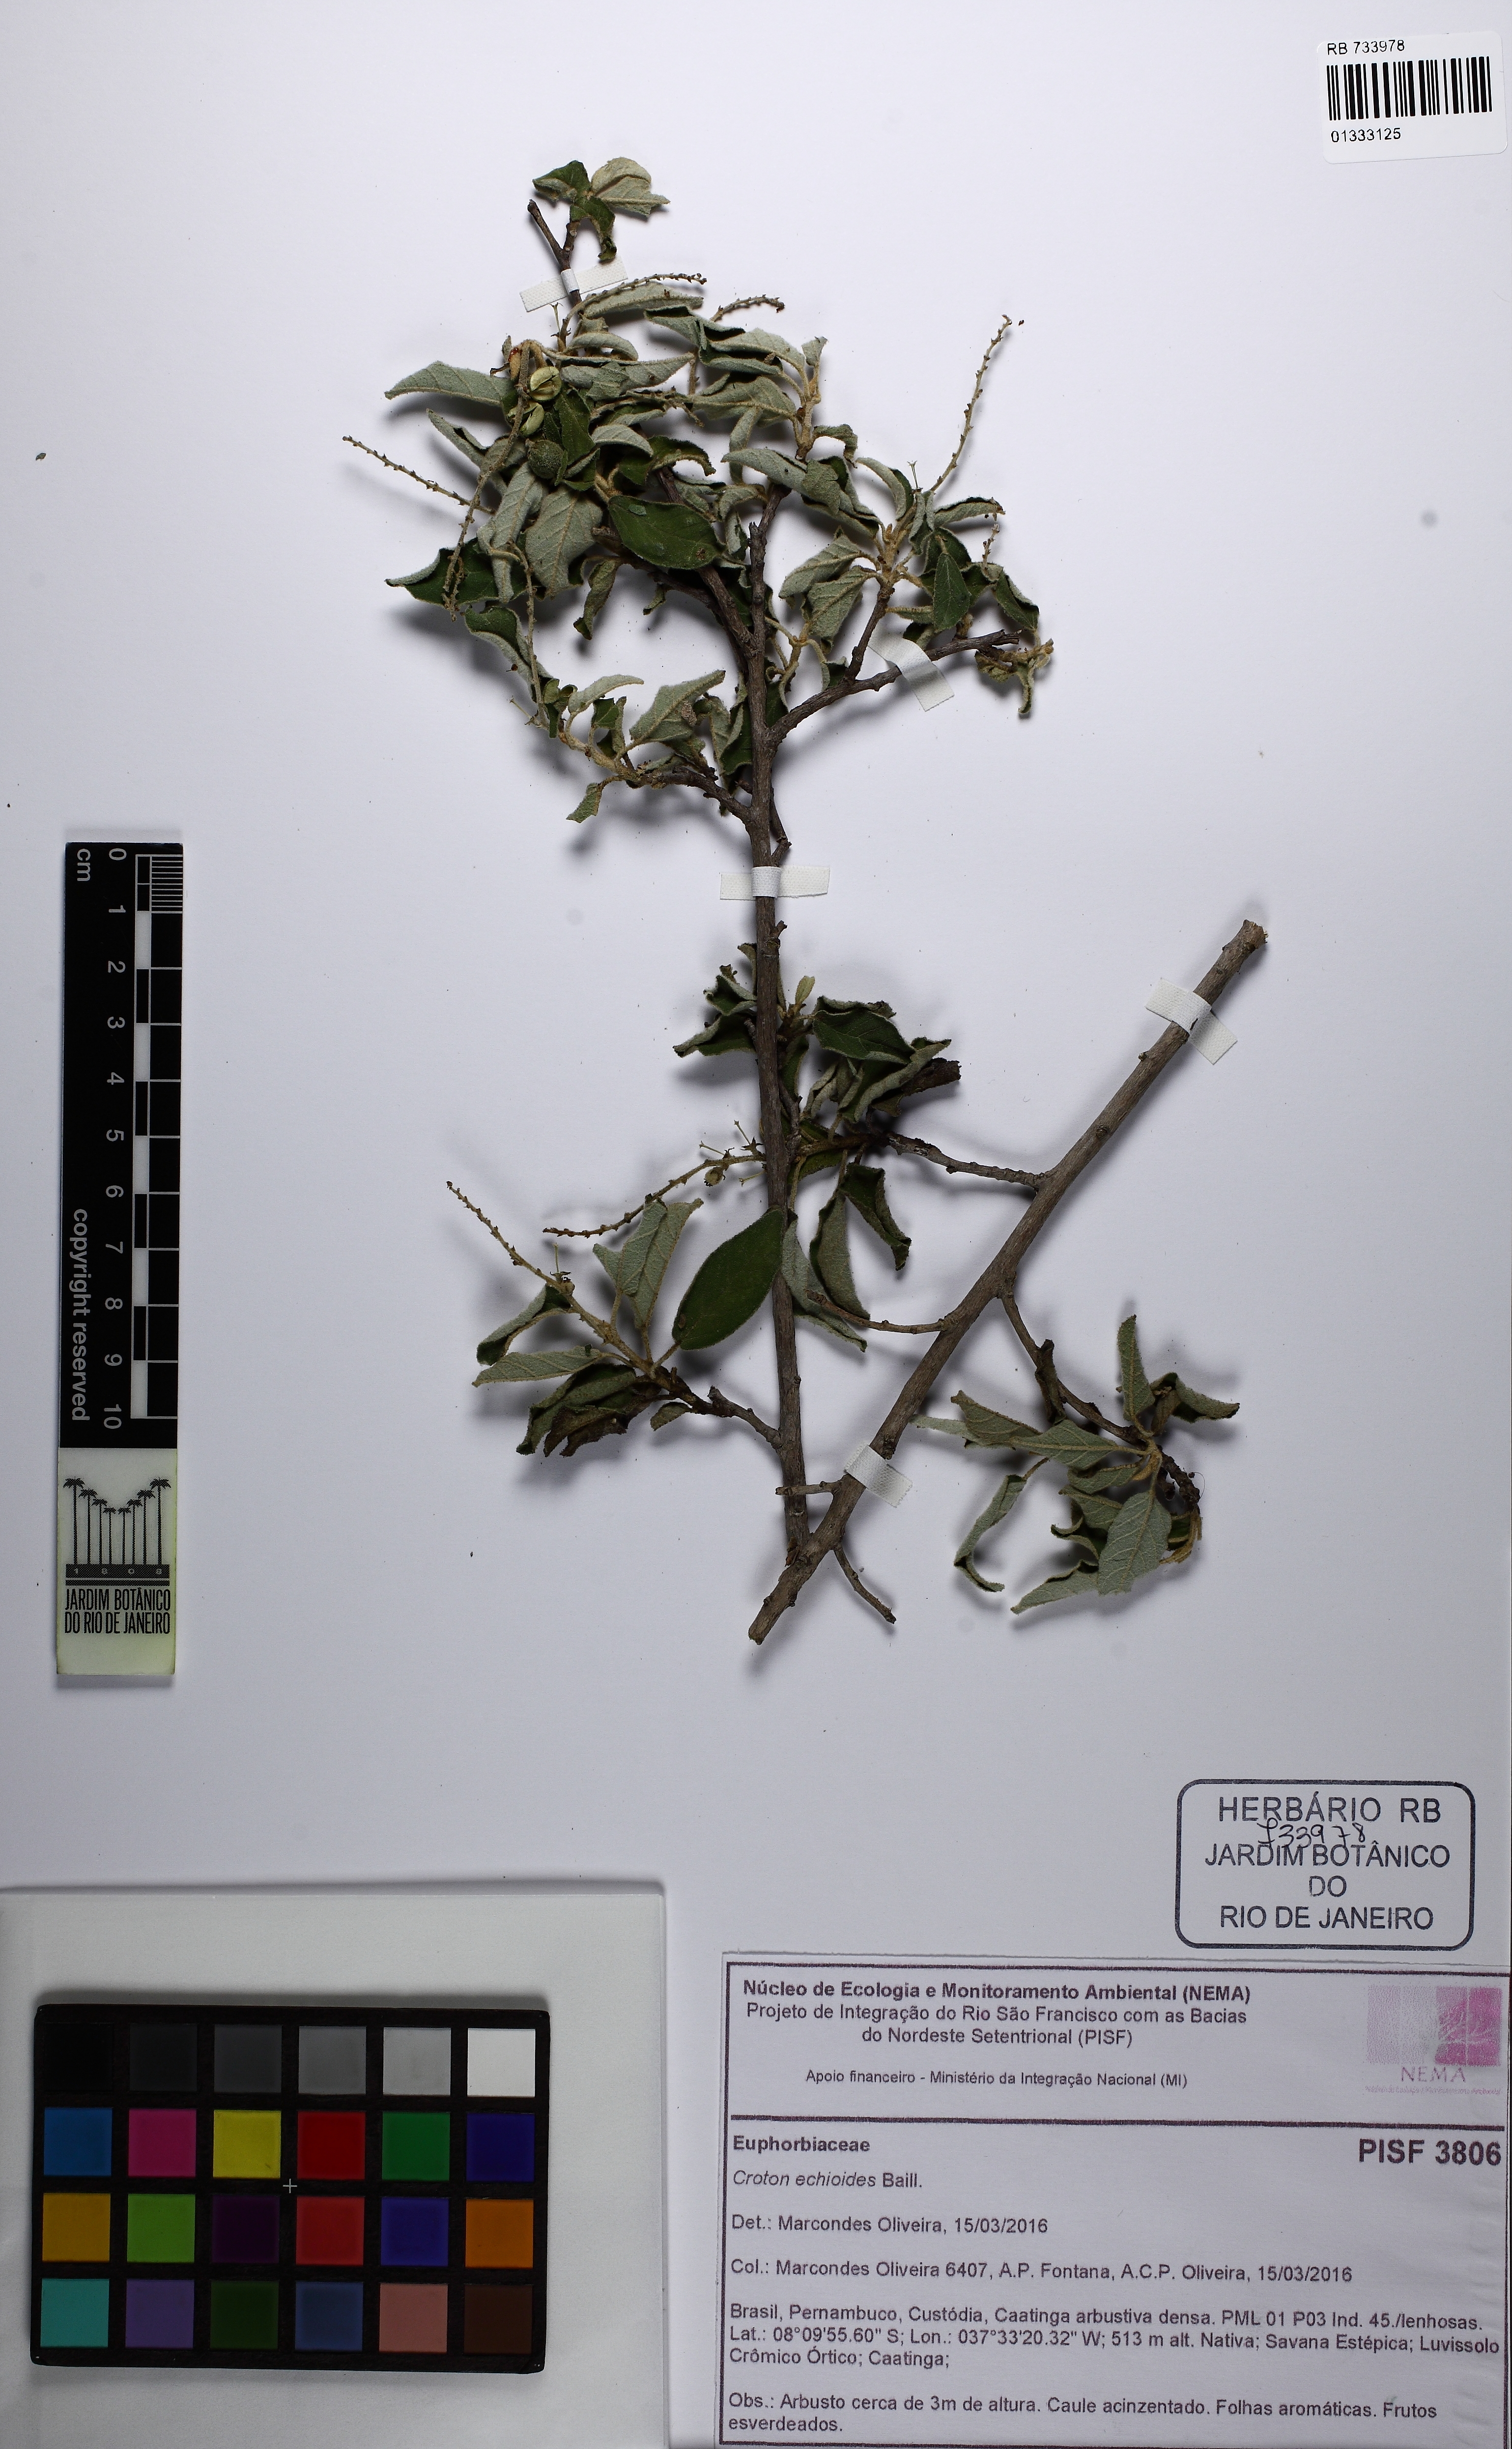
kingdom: Plantae
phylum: Tracheophyta
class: Magnoliopsida
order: Malpighiales
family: Euphorbiaceae
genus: Croton
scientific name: Croton echioides
